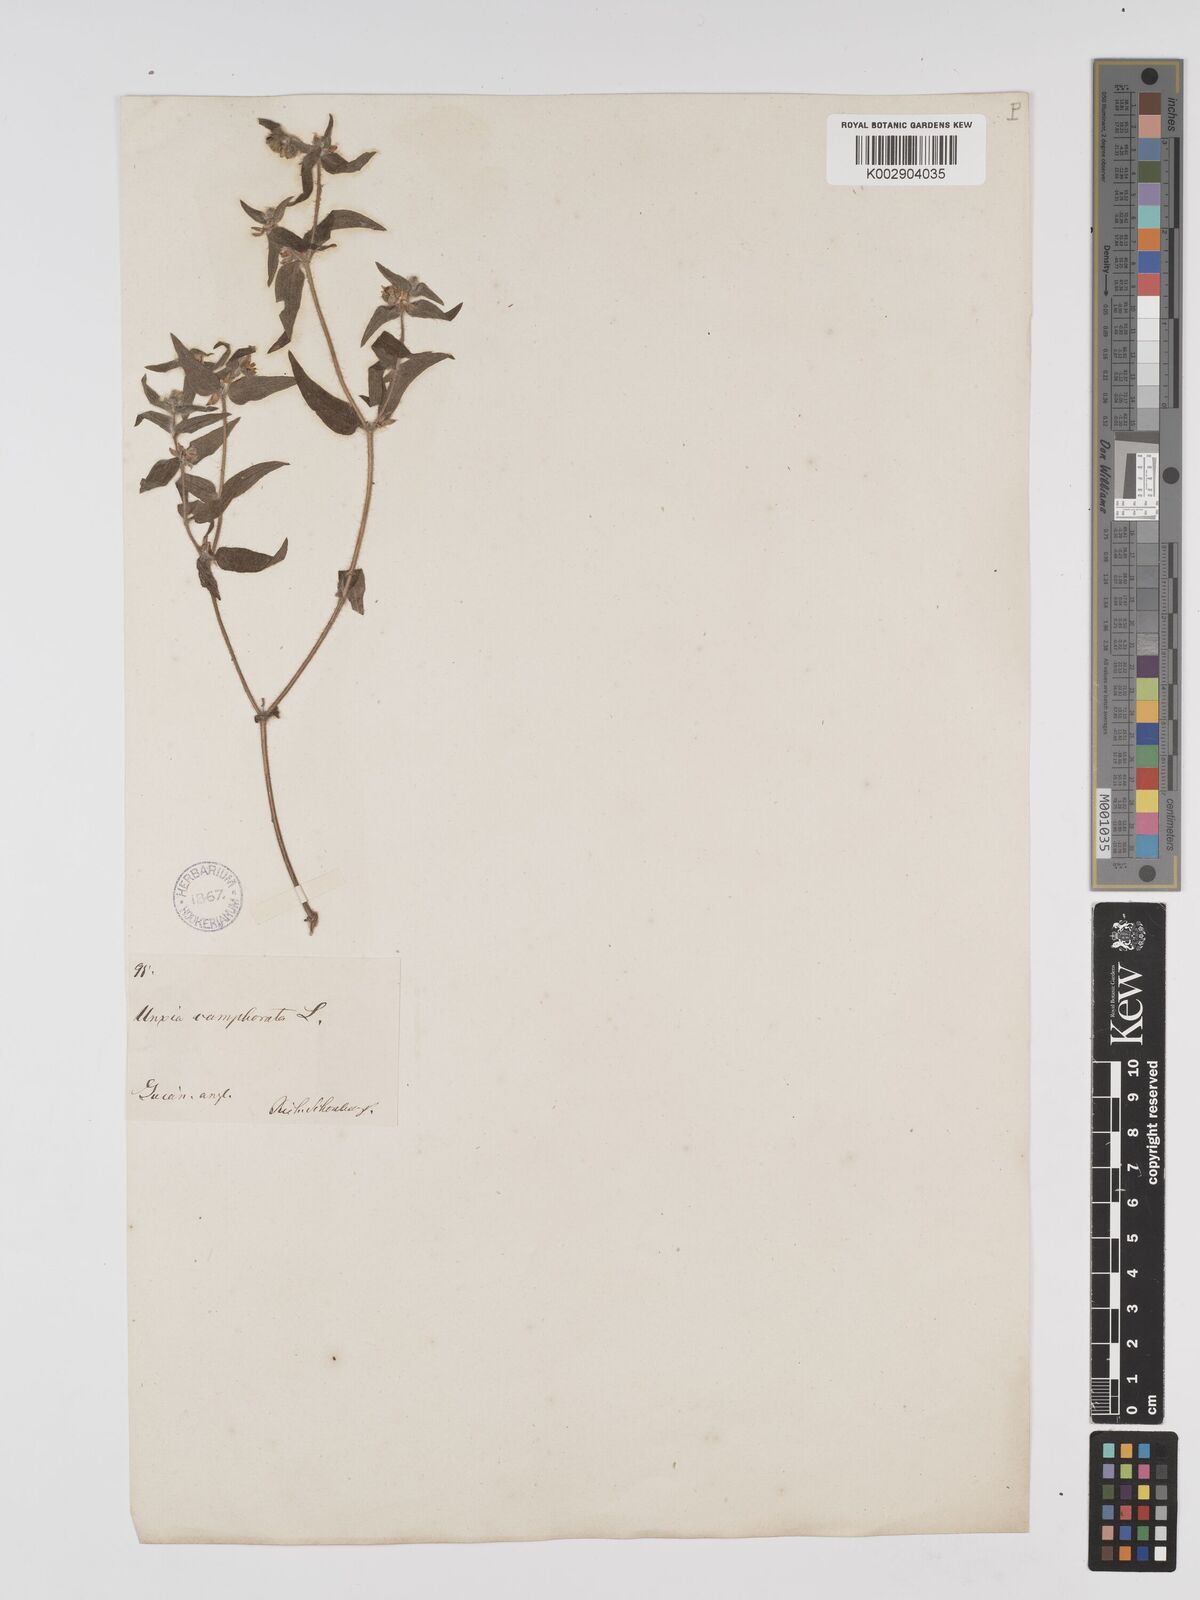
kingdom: Plantae
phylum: Tracheophyta
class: Magnoliopsida
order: Asterales
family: Asteraceae
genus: Unxia
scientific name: Unxia camphorata
